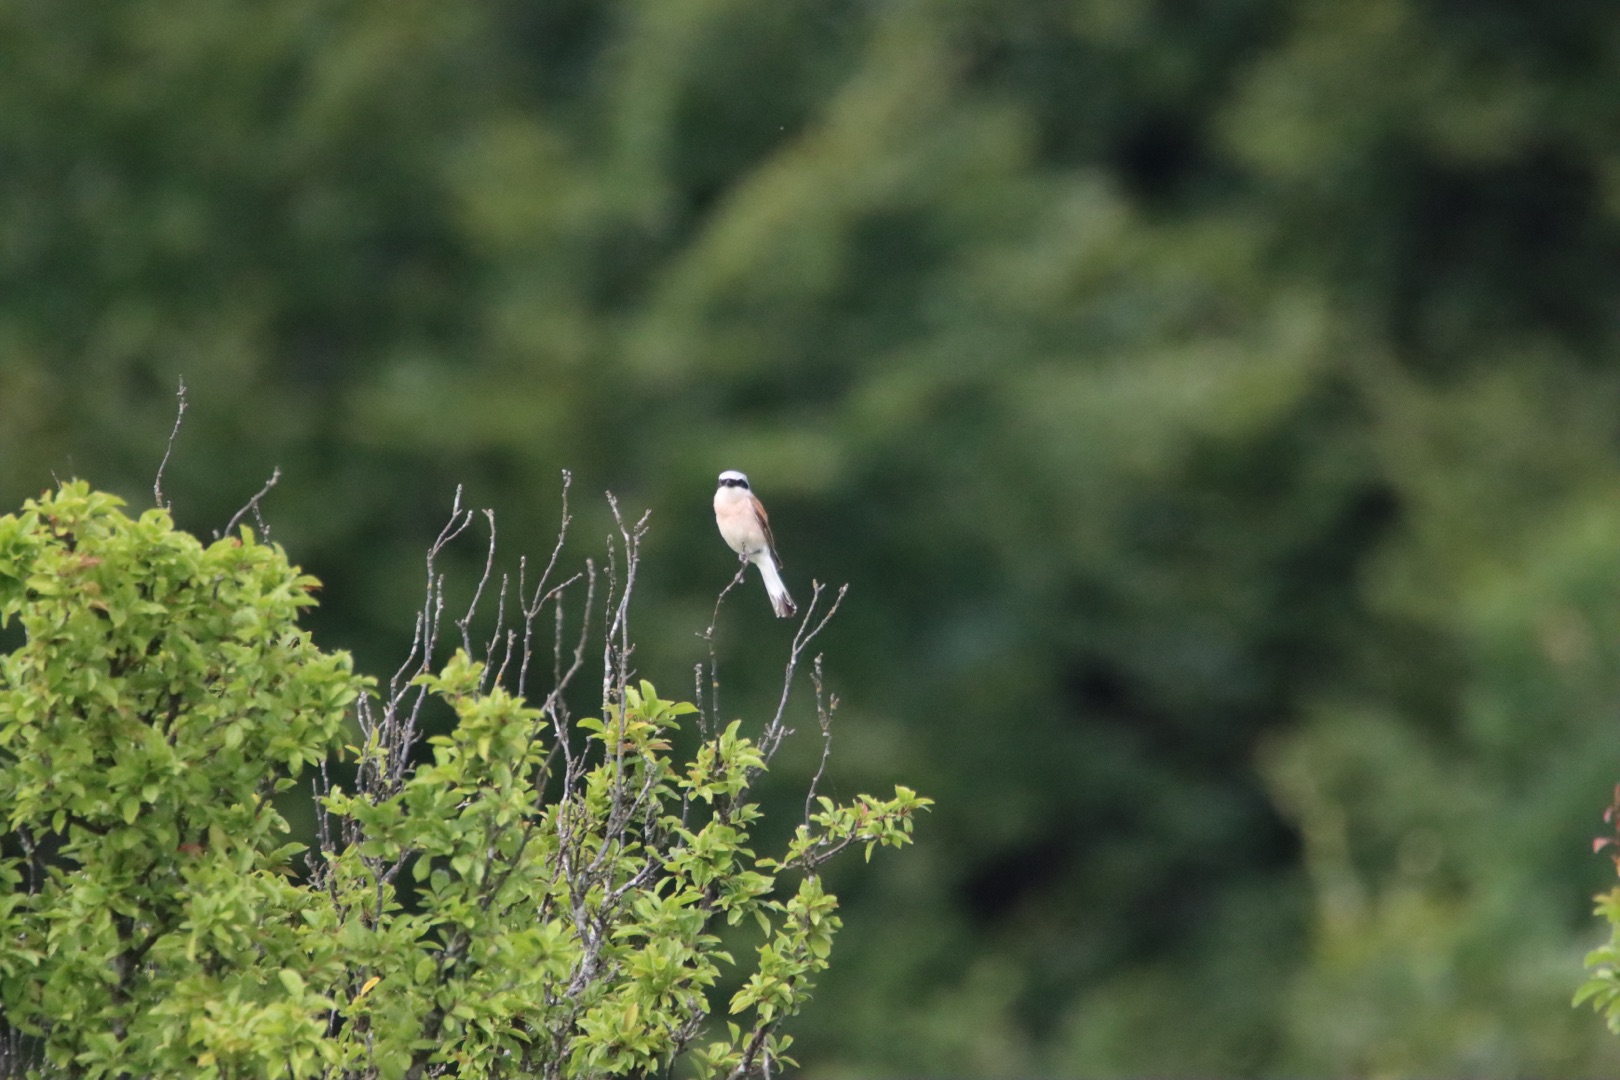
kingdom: Animalia
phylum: Chordata
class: Aves
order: Passeriformes
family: Laniidae
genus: Lanius
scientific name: Lanius collurio
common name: Rødrygget tornskade
